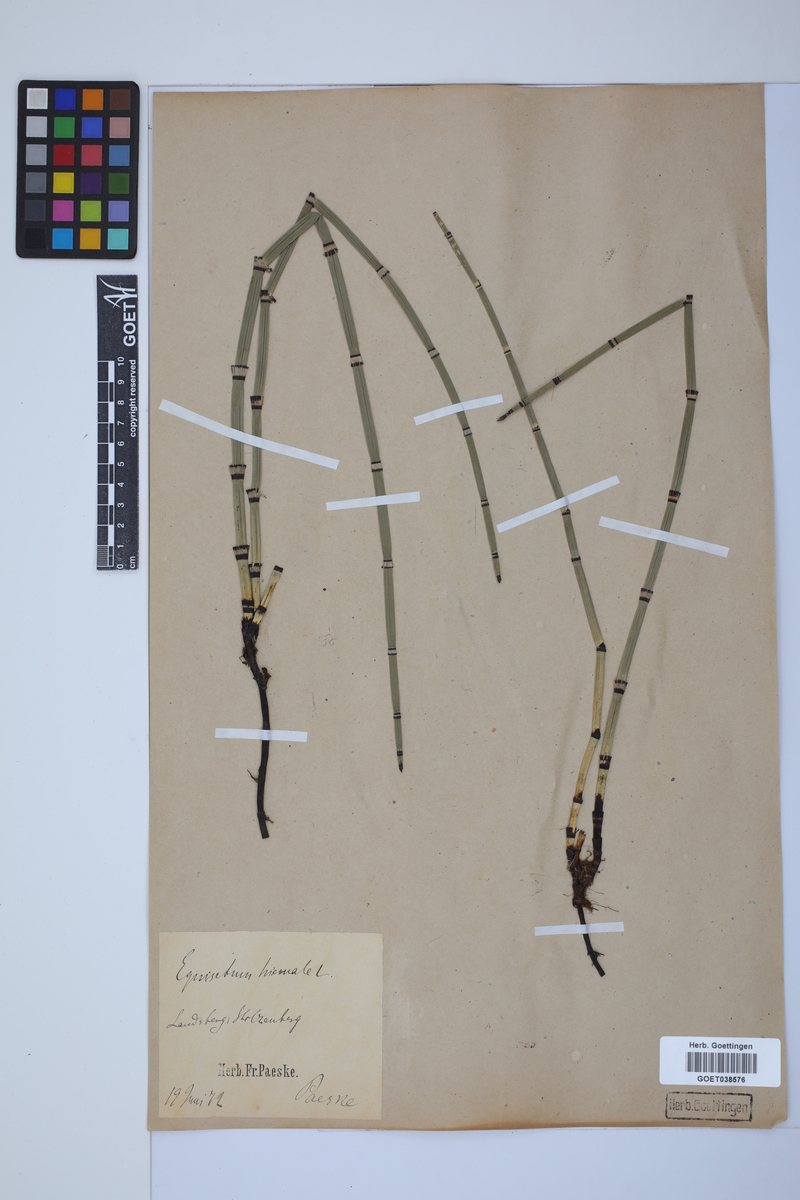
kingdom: Plantae
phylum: Tracheophyta
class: Polypodiopsida
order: Equisetales
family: Equisetaceae
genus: Equisetum
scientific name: Equisetum hyemale
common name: Rough horsetail
